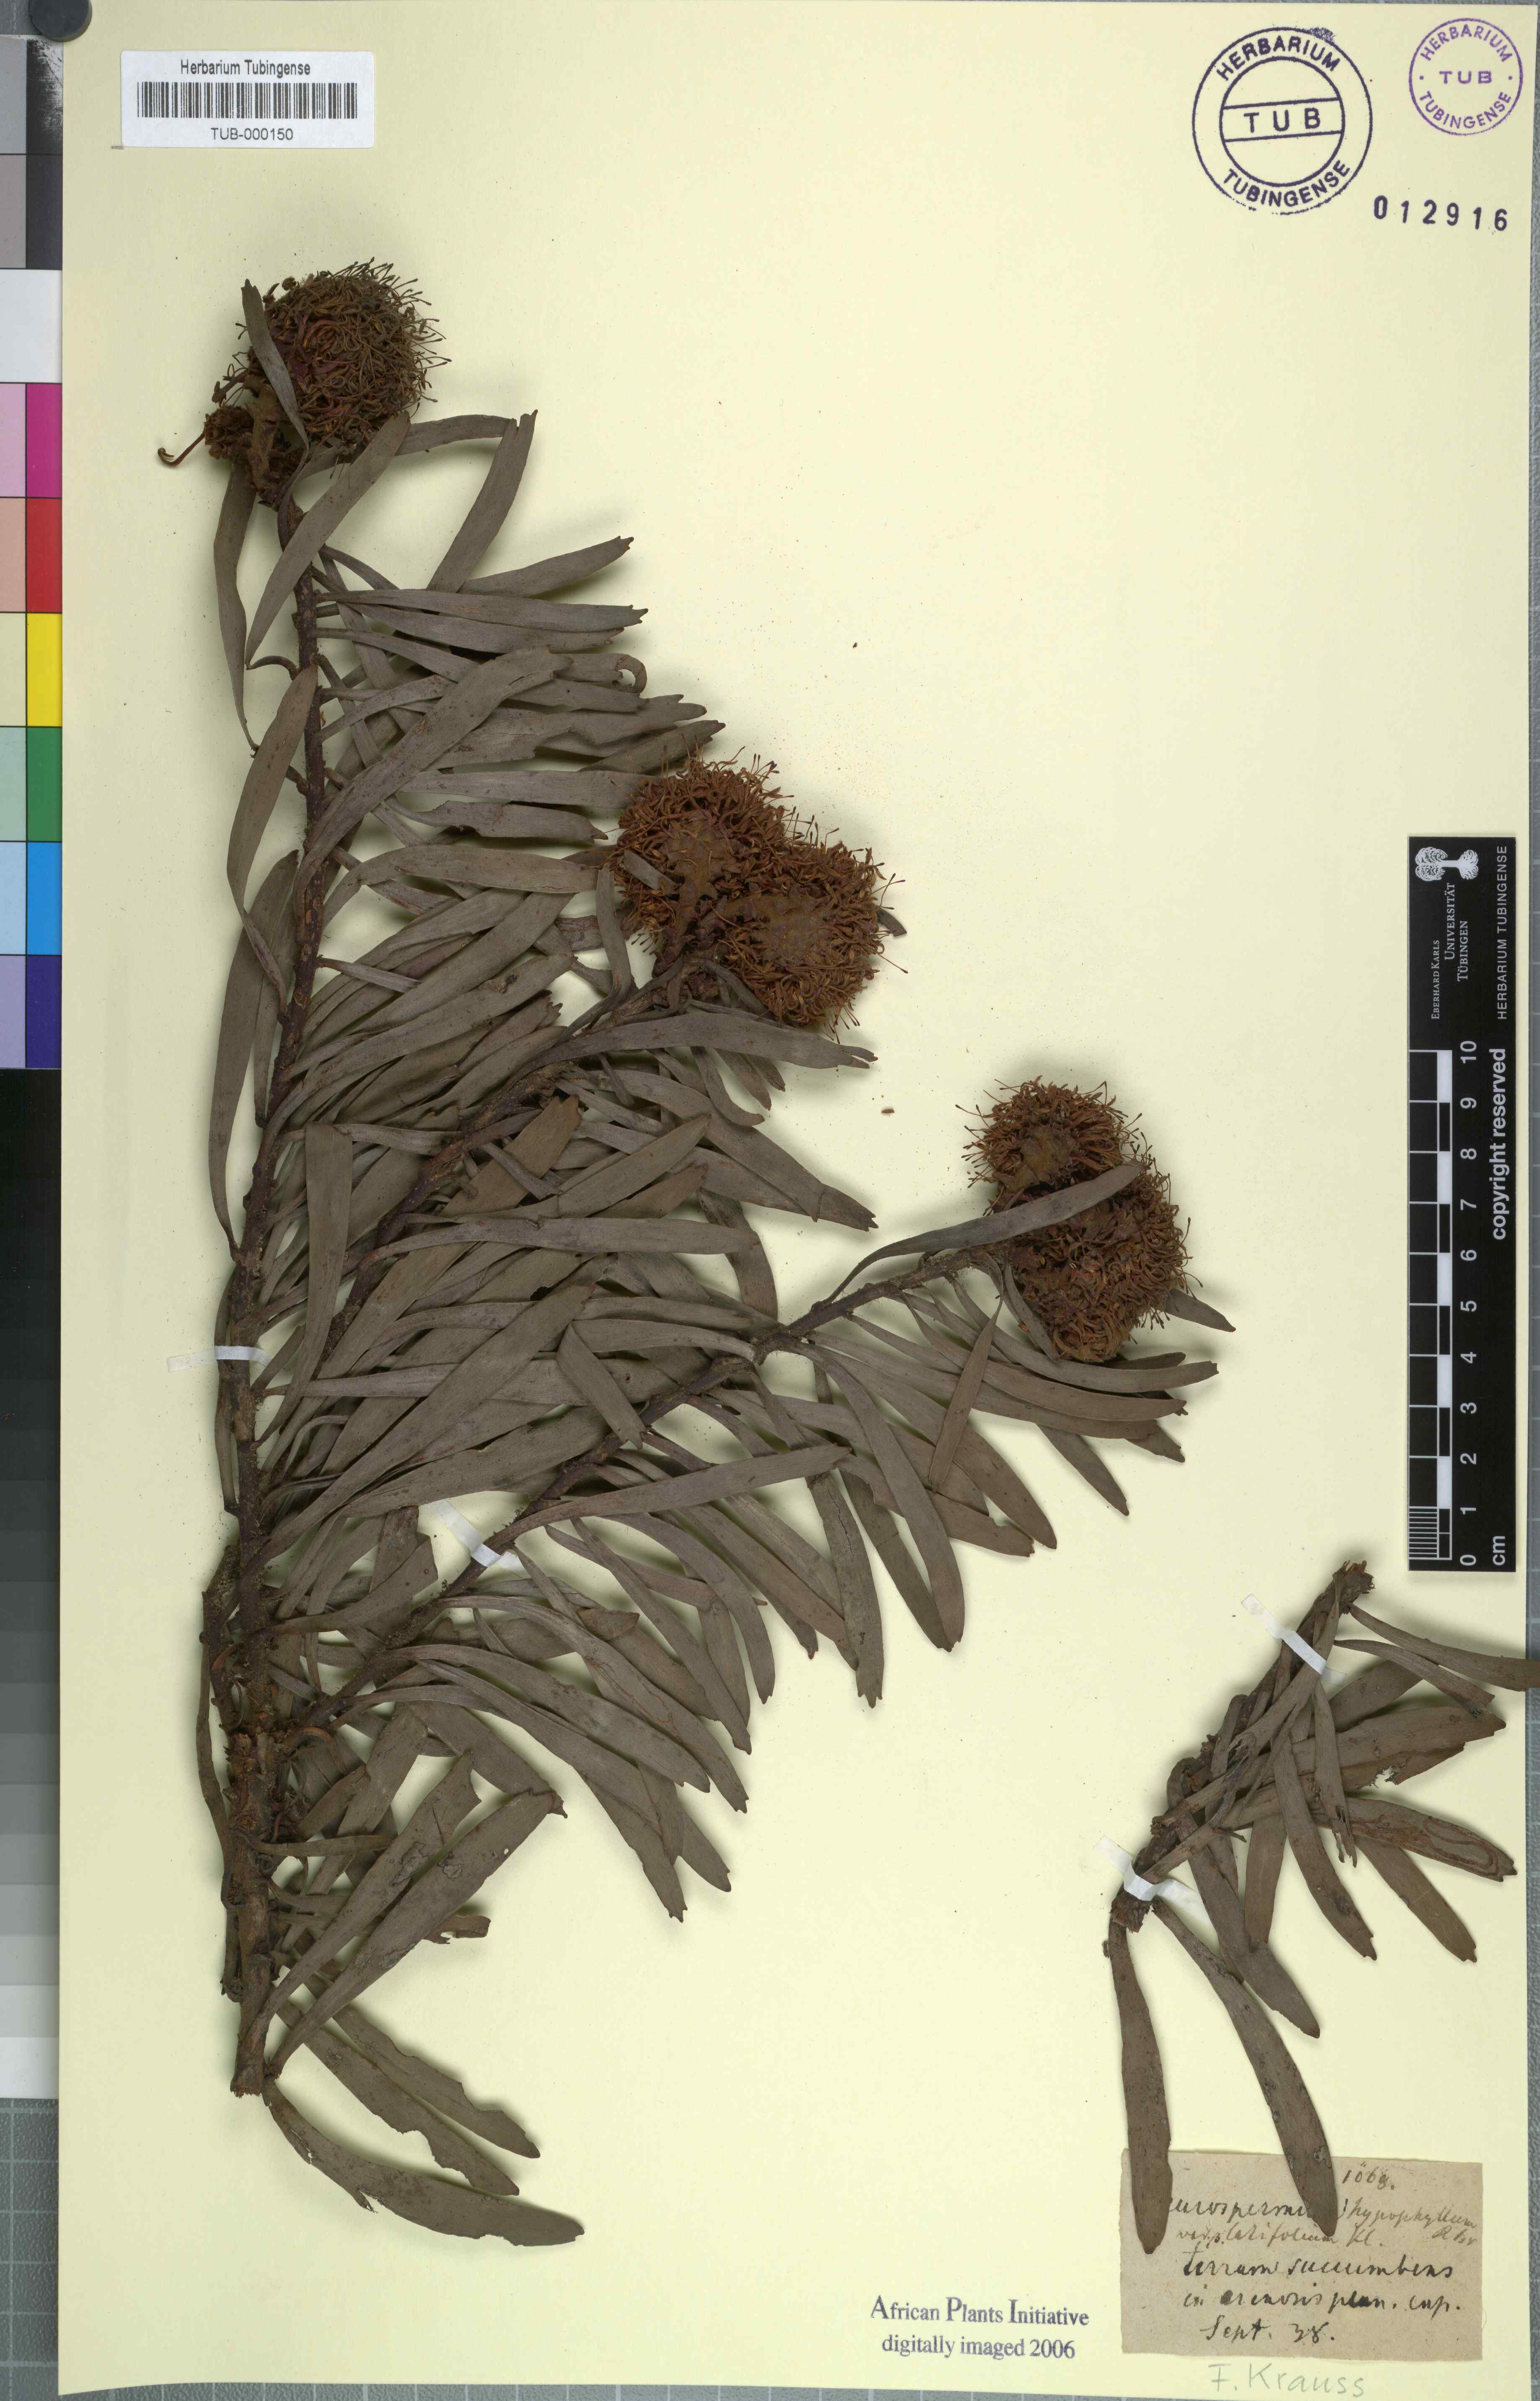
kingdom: Plantae
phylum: Tracheophyta
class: Magnoliopsida
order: Proteales
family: Proteaceae
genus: Leucospermum
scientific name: Leucospermum hypophyllocarpodendron
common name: Snakestem pincushion
